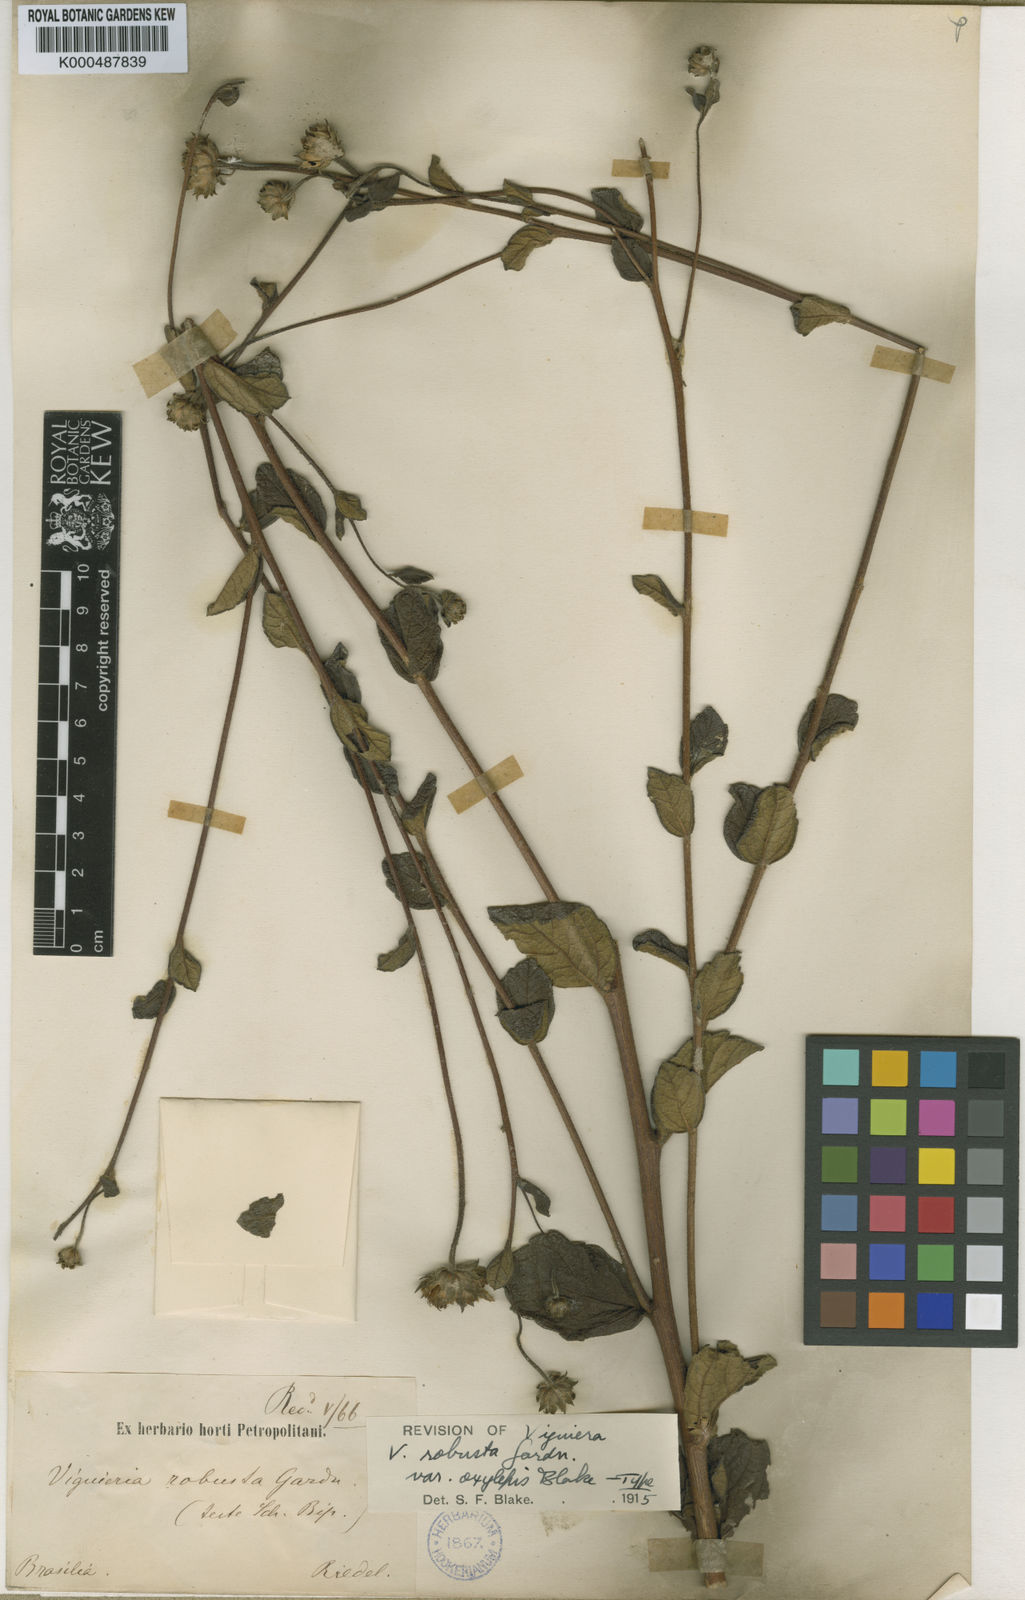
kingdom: Plantae
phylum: Tracheophyta
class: Magnoliopsida
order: Asterales
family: Asteraceae
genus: Aldama
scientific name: Aldama robusta
